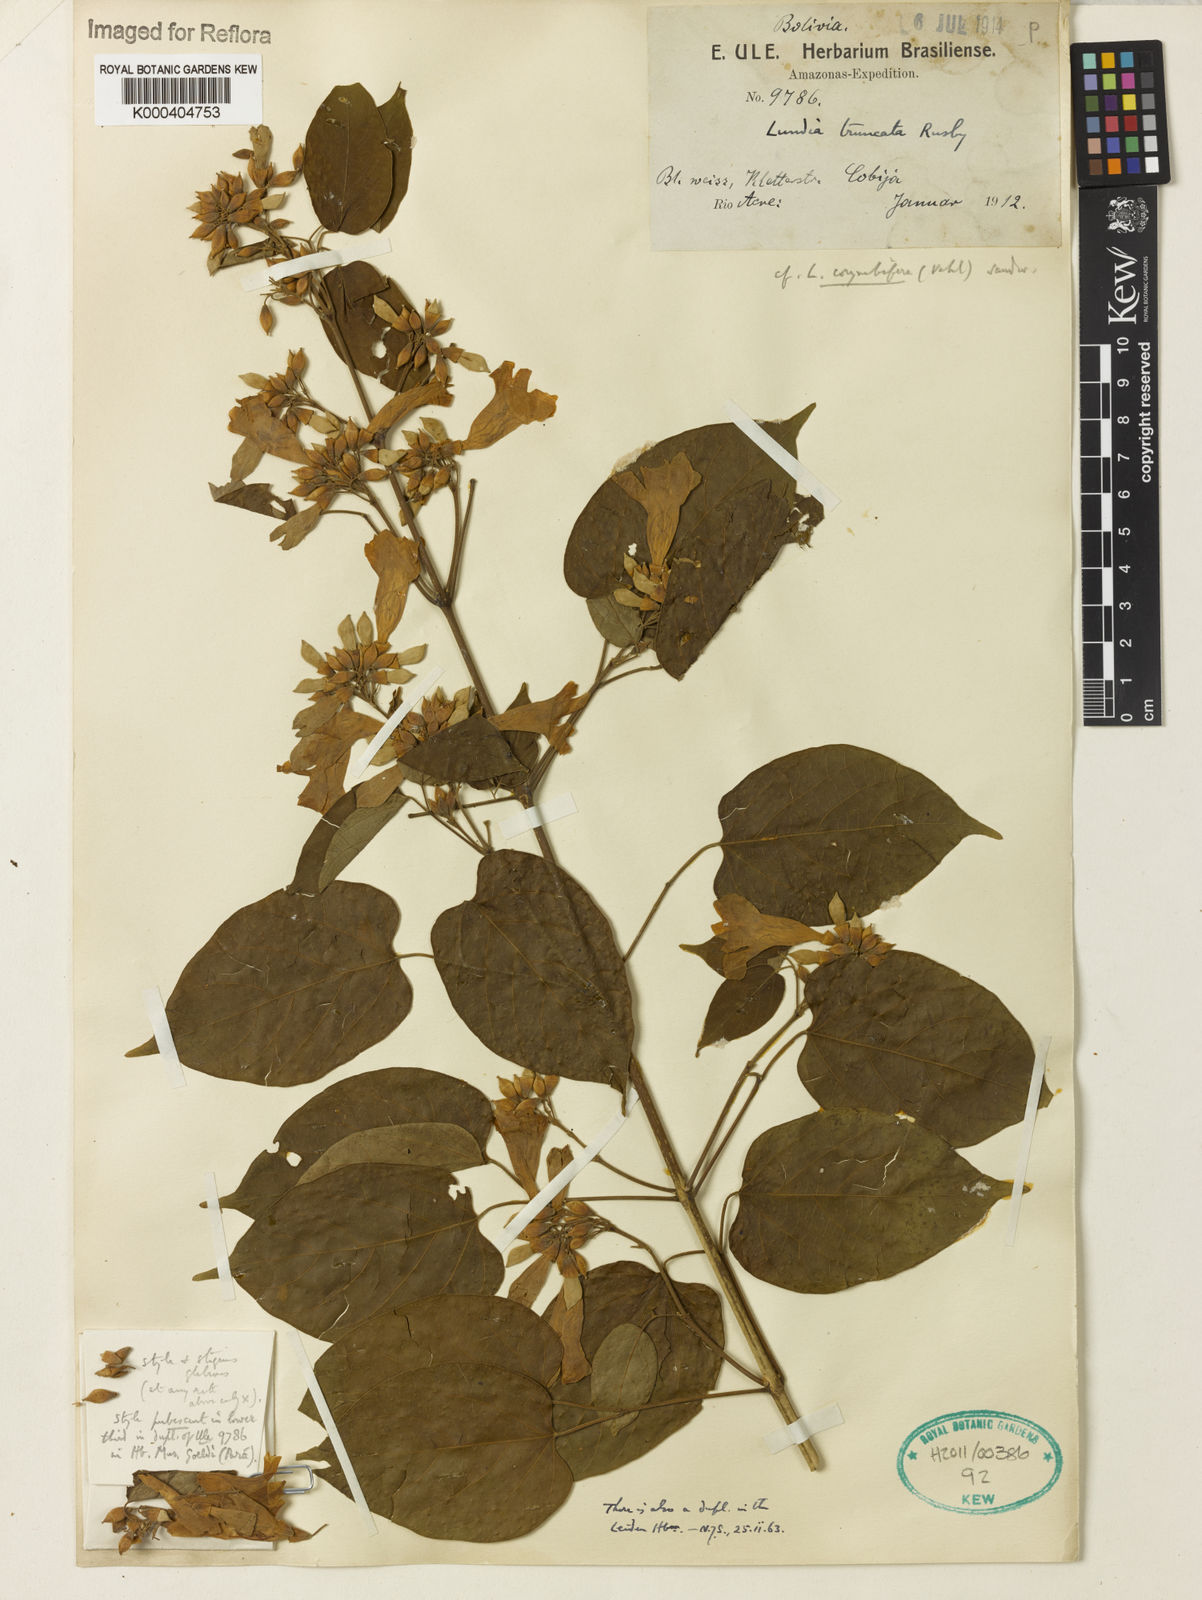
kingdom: Plantae
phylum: Tracheophyta
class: Magnoliopsida
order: Lamiales
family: Bignoniaceae
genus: Lundia
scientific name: Lundia corymbifera
